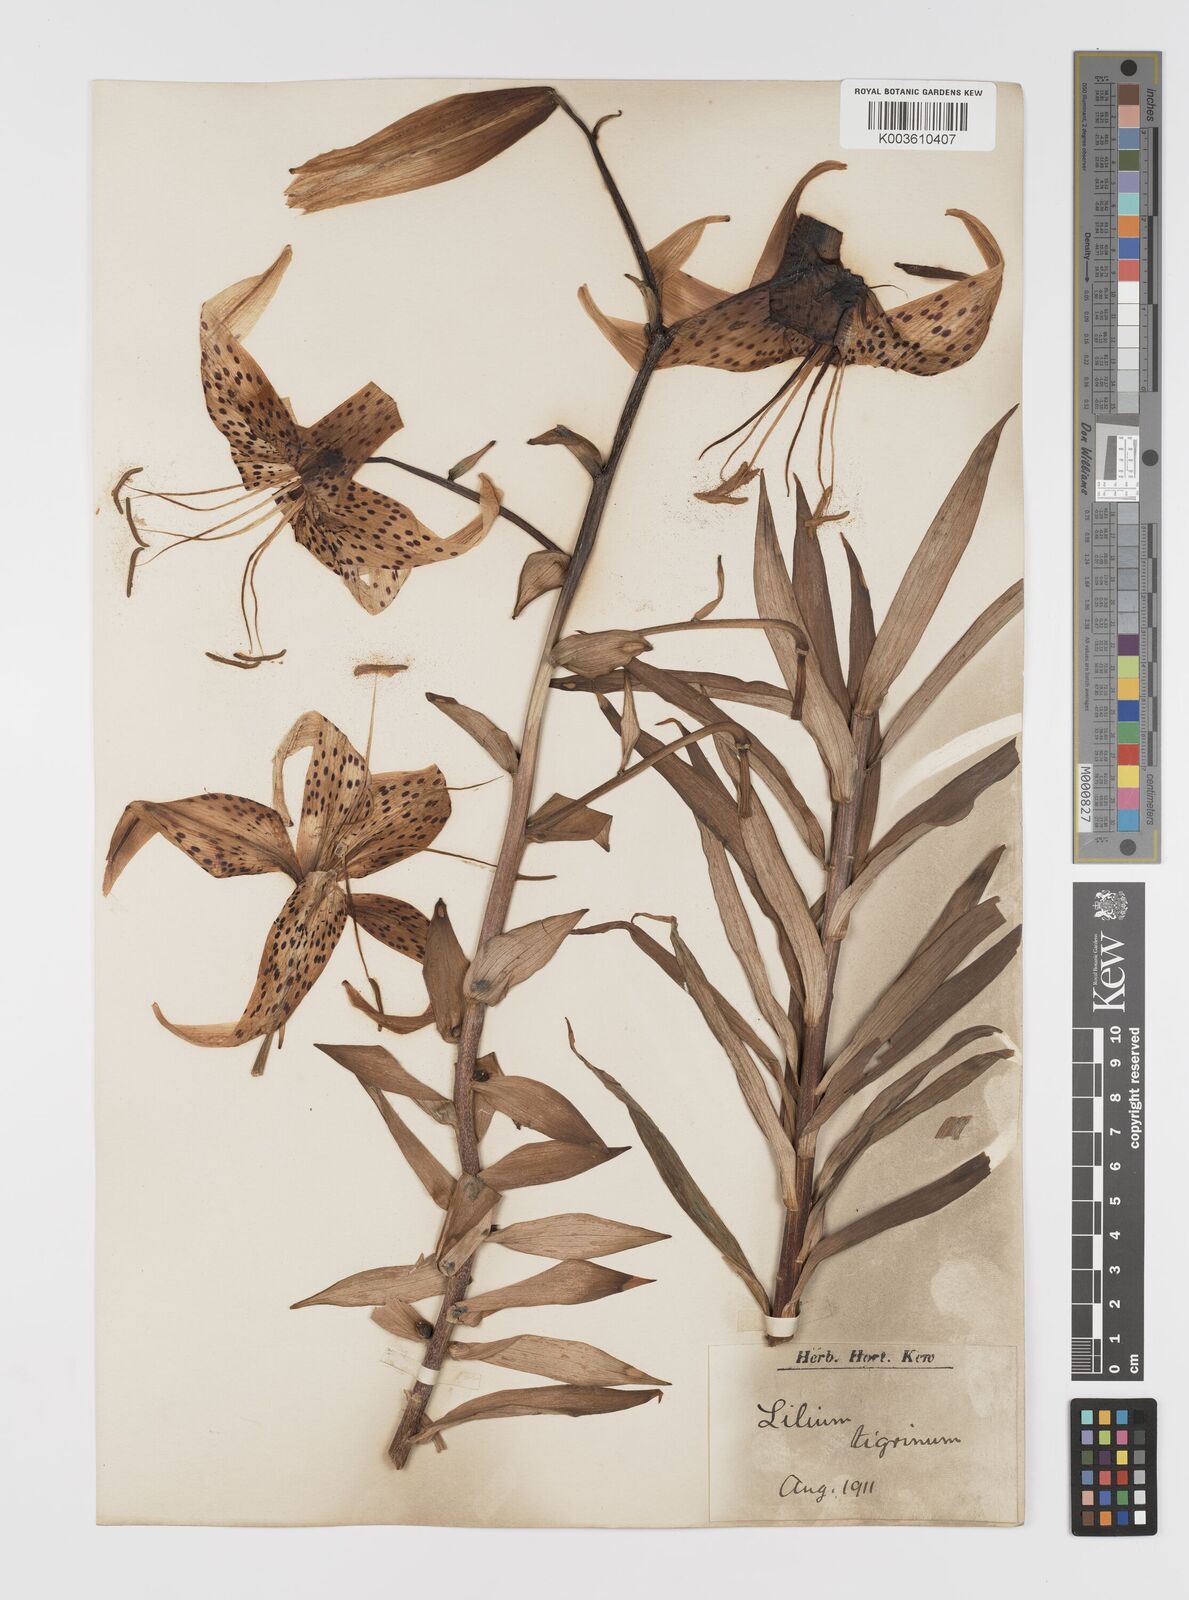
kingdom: Plantae
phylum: Tracheophyta
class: Liliopsida
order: Liliales
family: Liliaceae
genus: Lilium
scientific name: Lilium lancifolium
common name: Tiger lily
